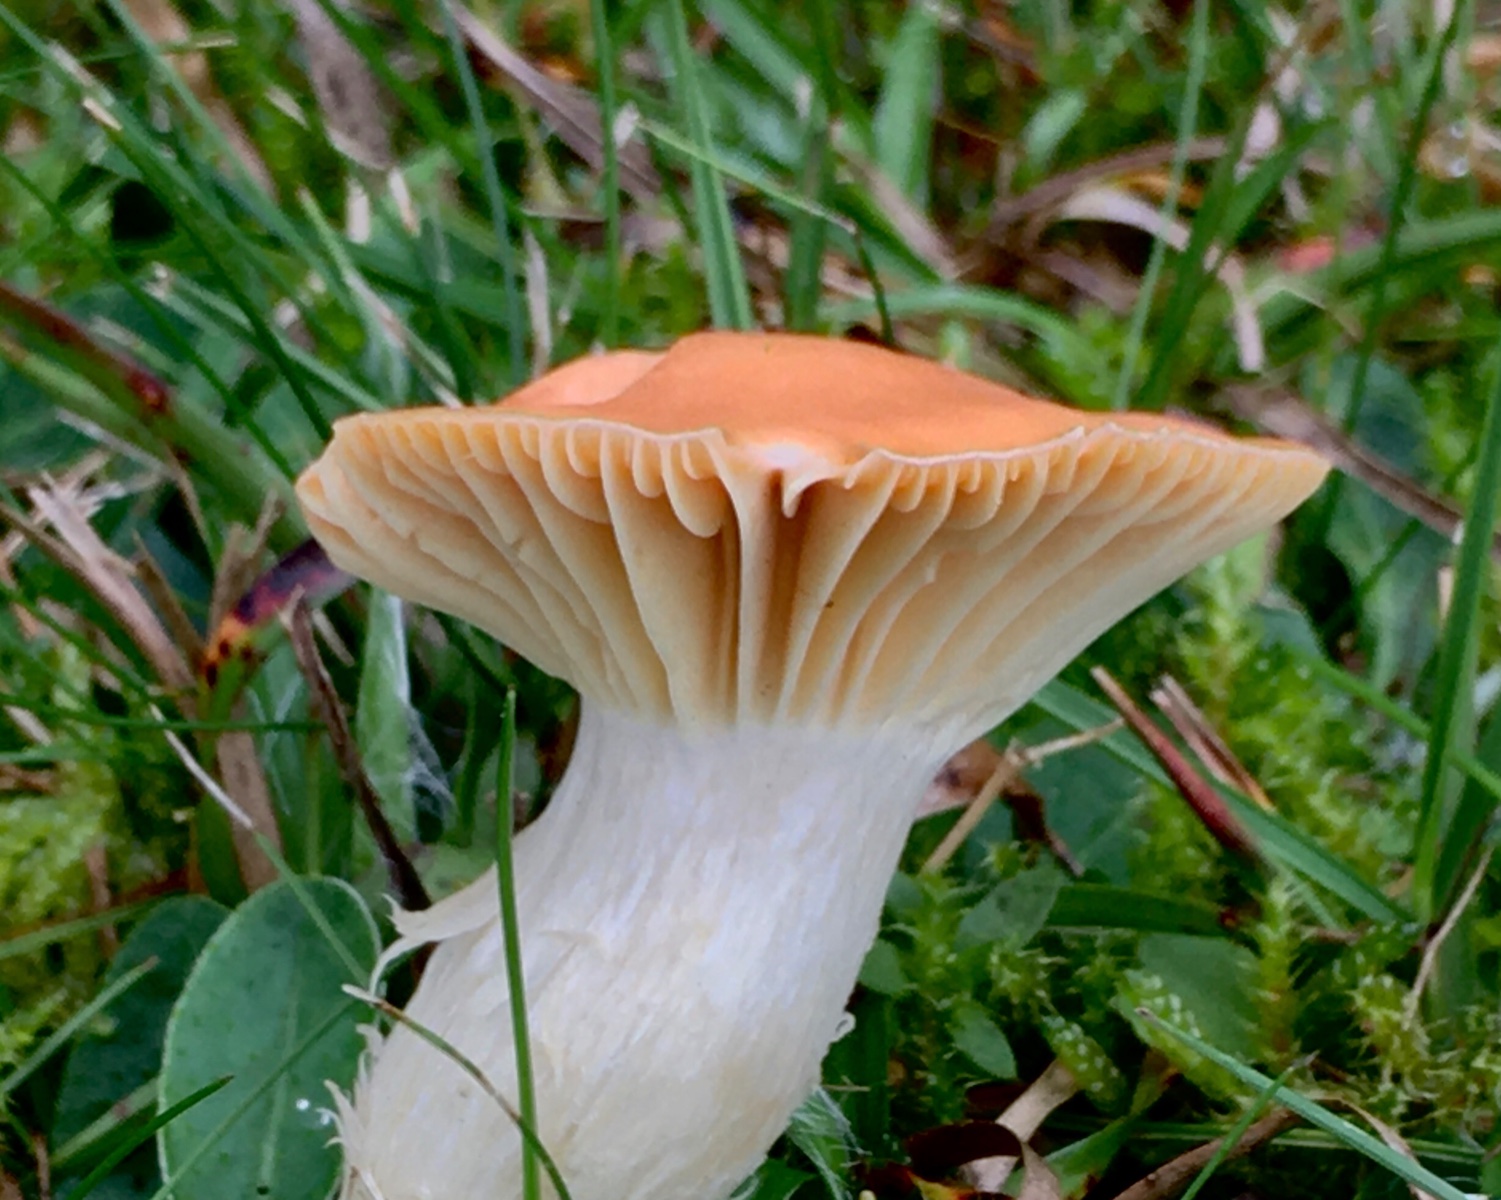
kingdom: Fungi
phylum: Basidiomycota
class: Agaricomycetes
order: Agaricales
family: Hygrophoraceae
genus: Cuphophyllus
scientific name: Cuphophyllus pratensis
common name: eng-vokshat
